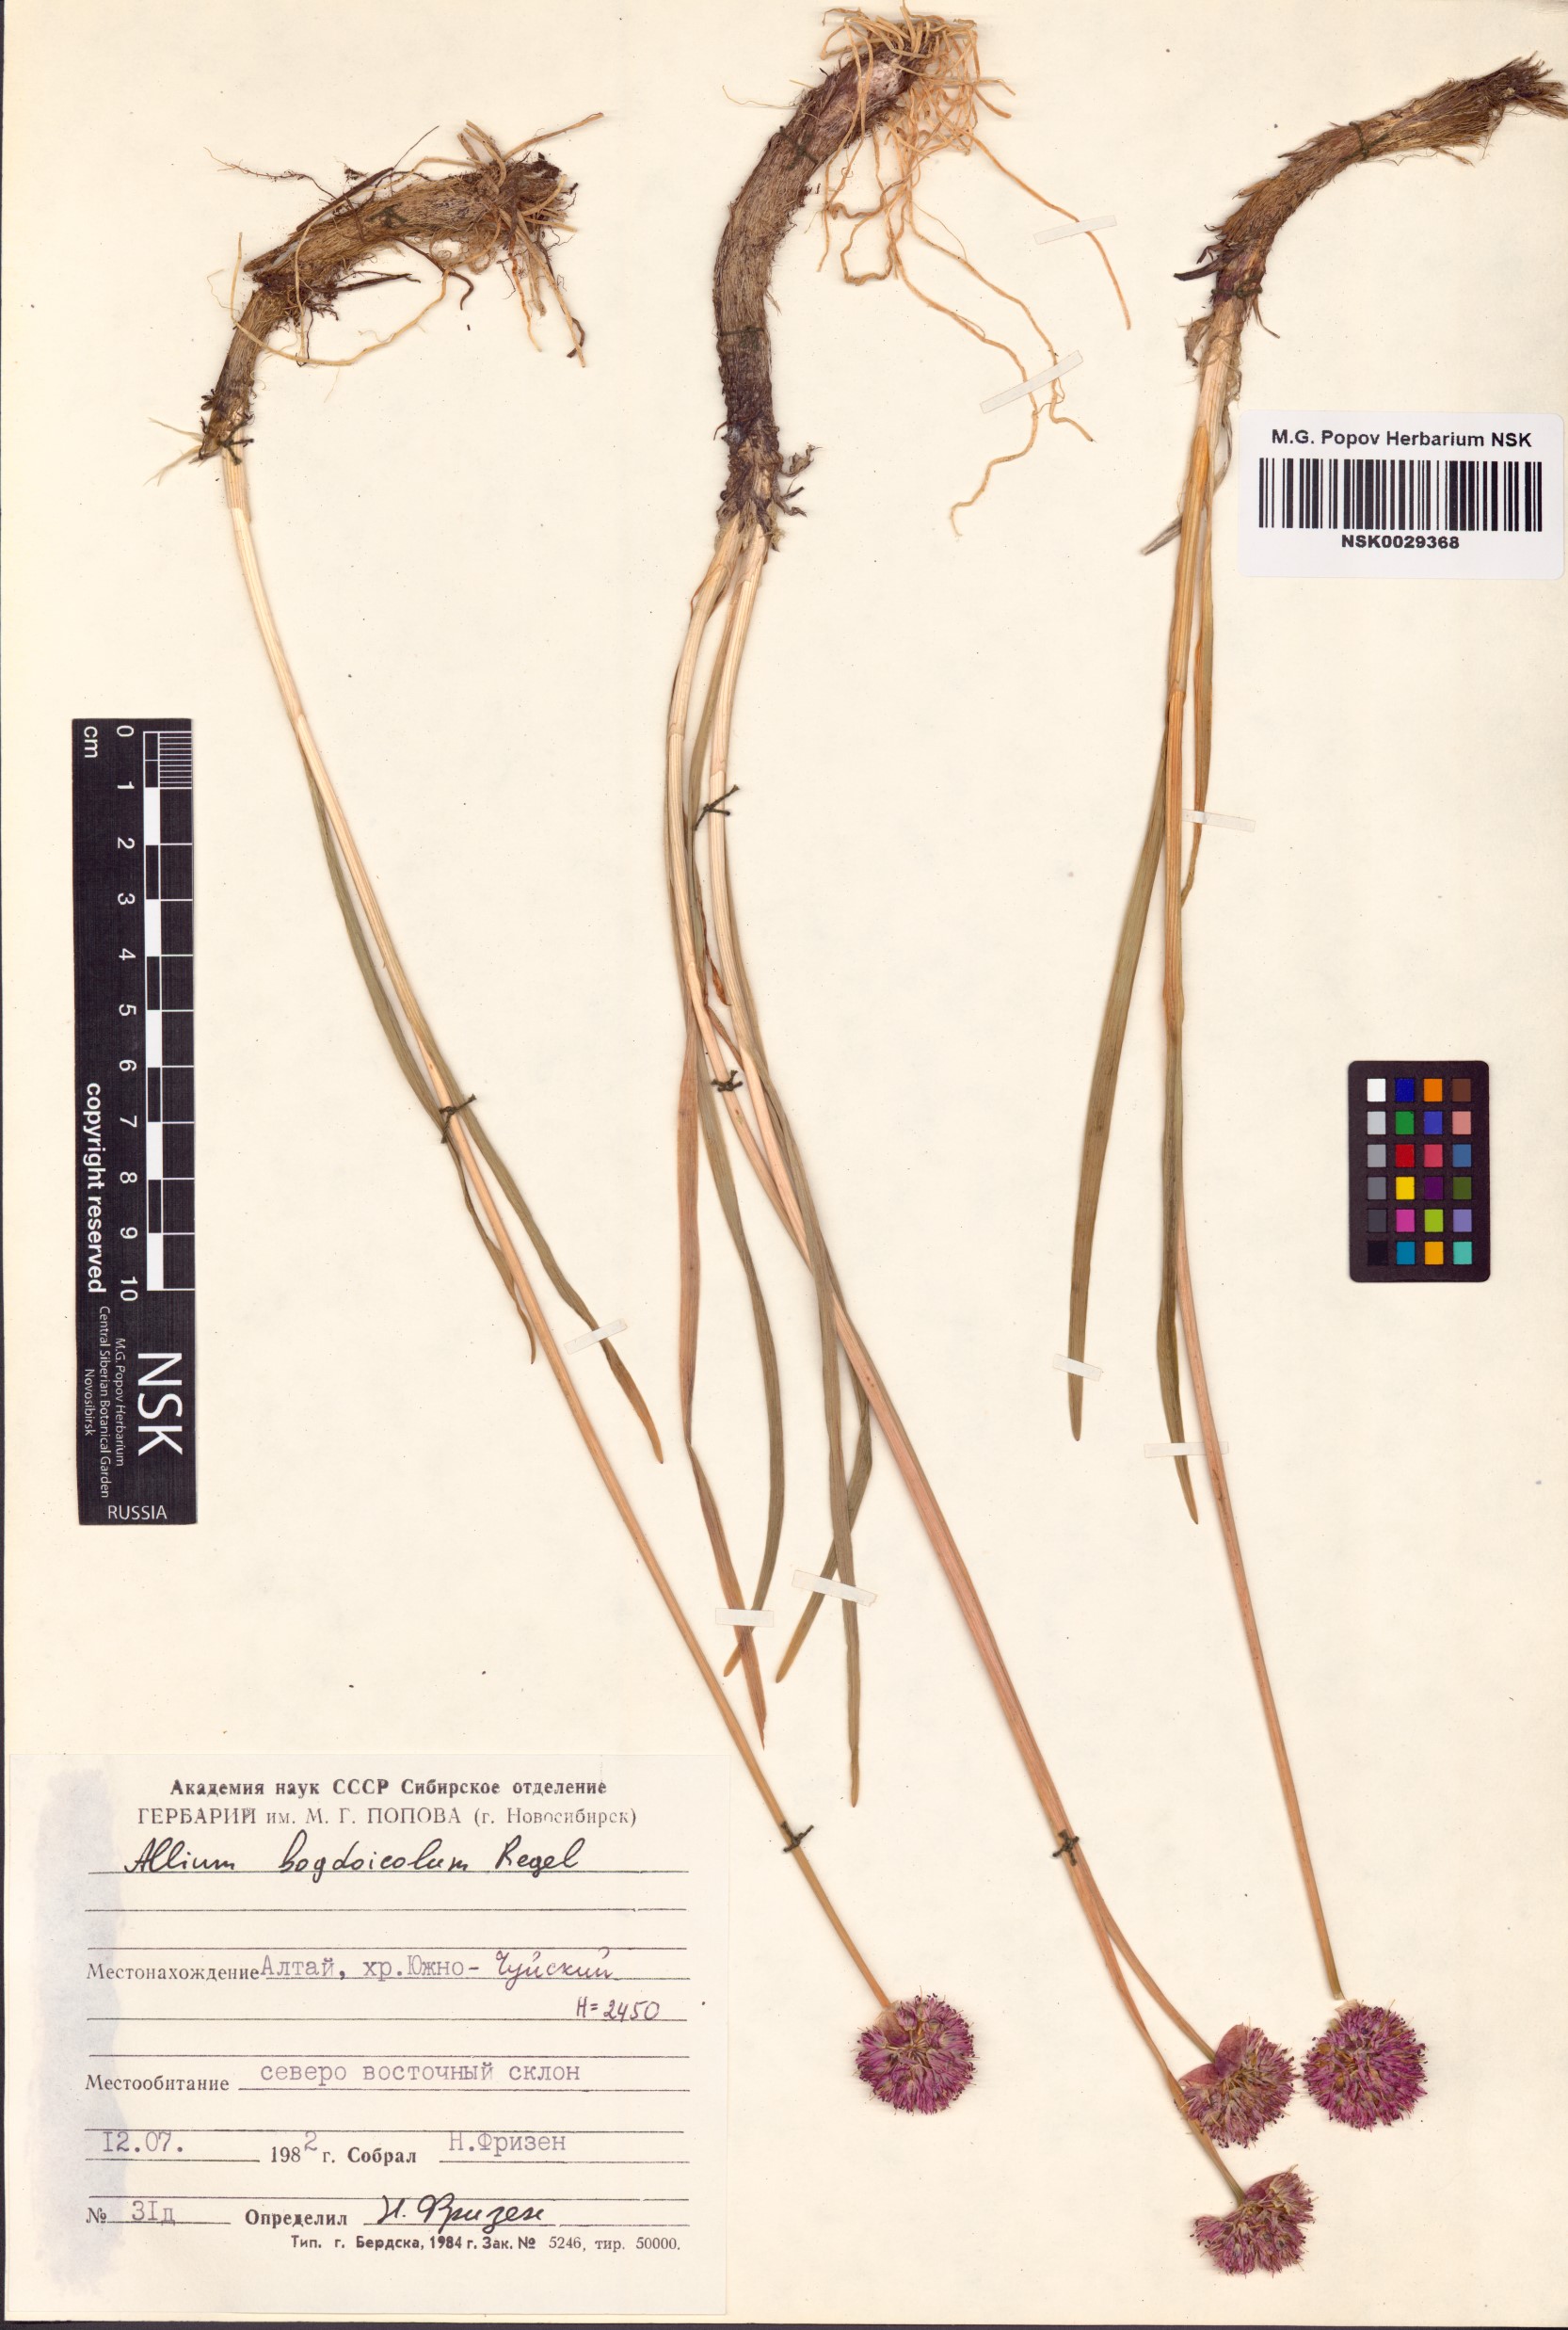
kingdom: Plantae
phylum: Tracheophyta
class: Liliopsida
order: Asparagales
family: Amaryllidaceae
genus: Allium
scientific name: Allium schrenkii
